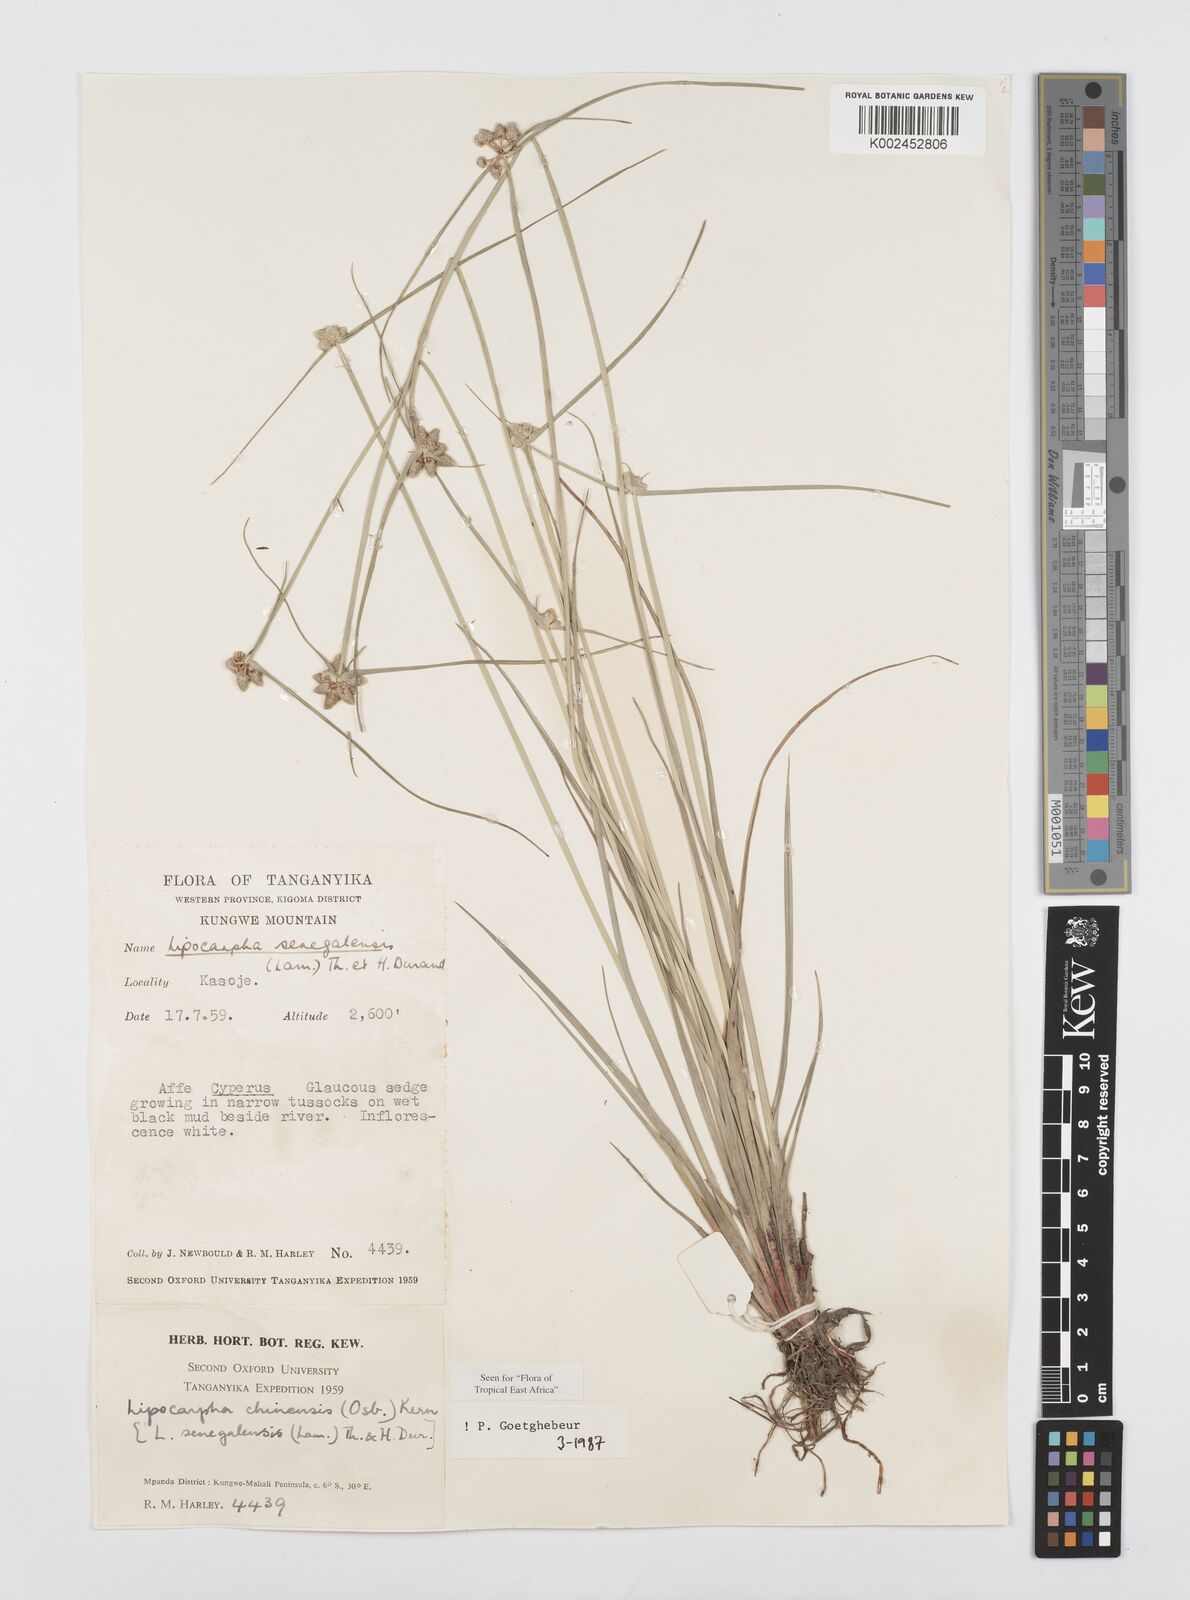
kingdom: Plantae
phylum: Tracheophyta
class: Liliopsida
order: Poales
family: Cyperaceae
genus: Cyperus
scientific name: Cyperus albescens
